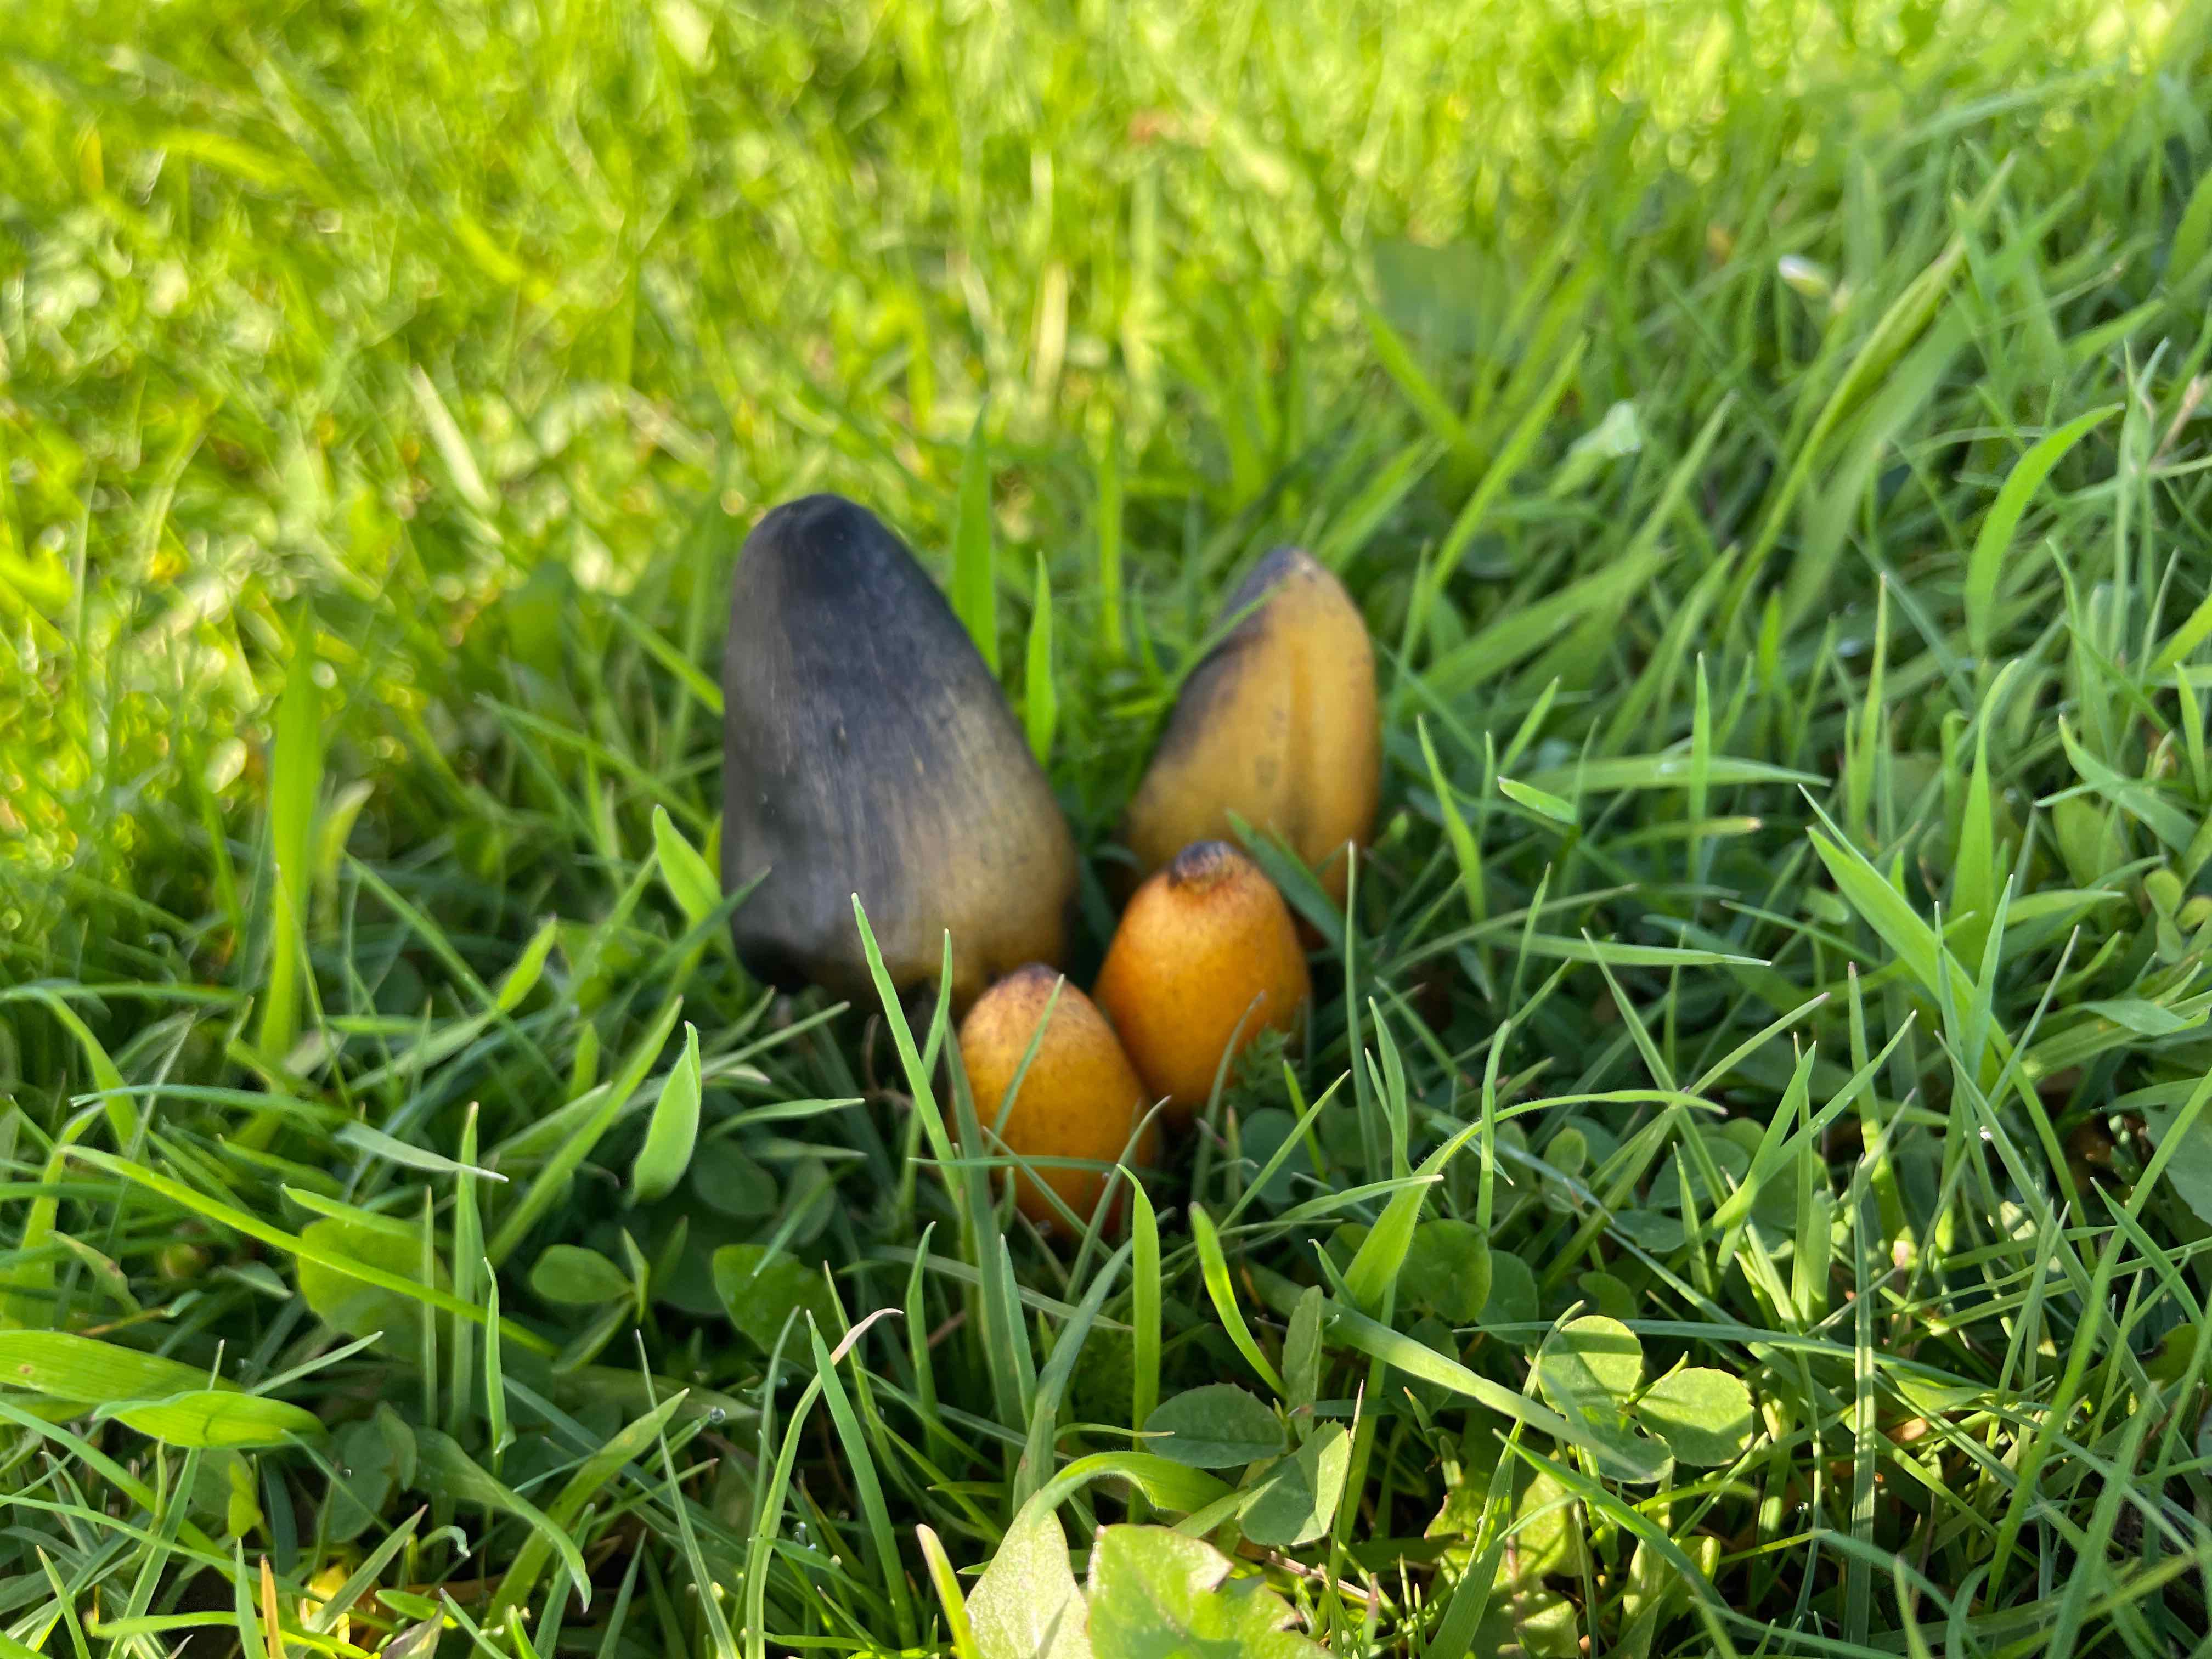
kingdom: Fungi
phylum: Basidiomycota
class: Agaricomycetes
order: Agaricales
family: Hygrophoraceae
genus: Hygrocybe
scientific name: Hygrocybe conica
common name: kegle-vokshat
